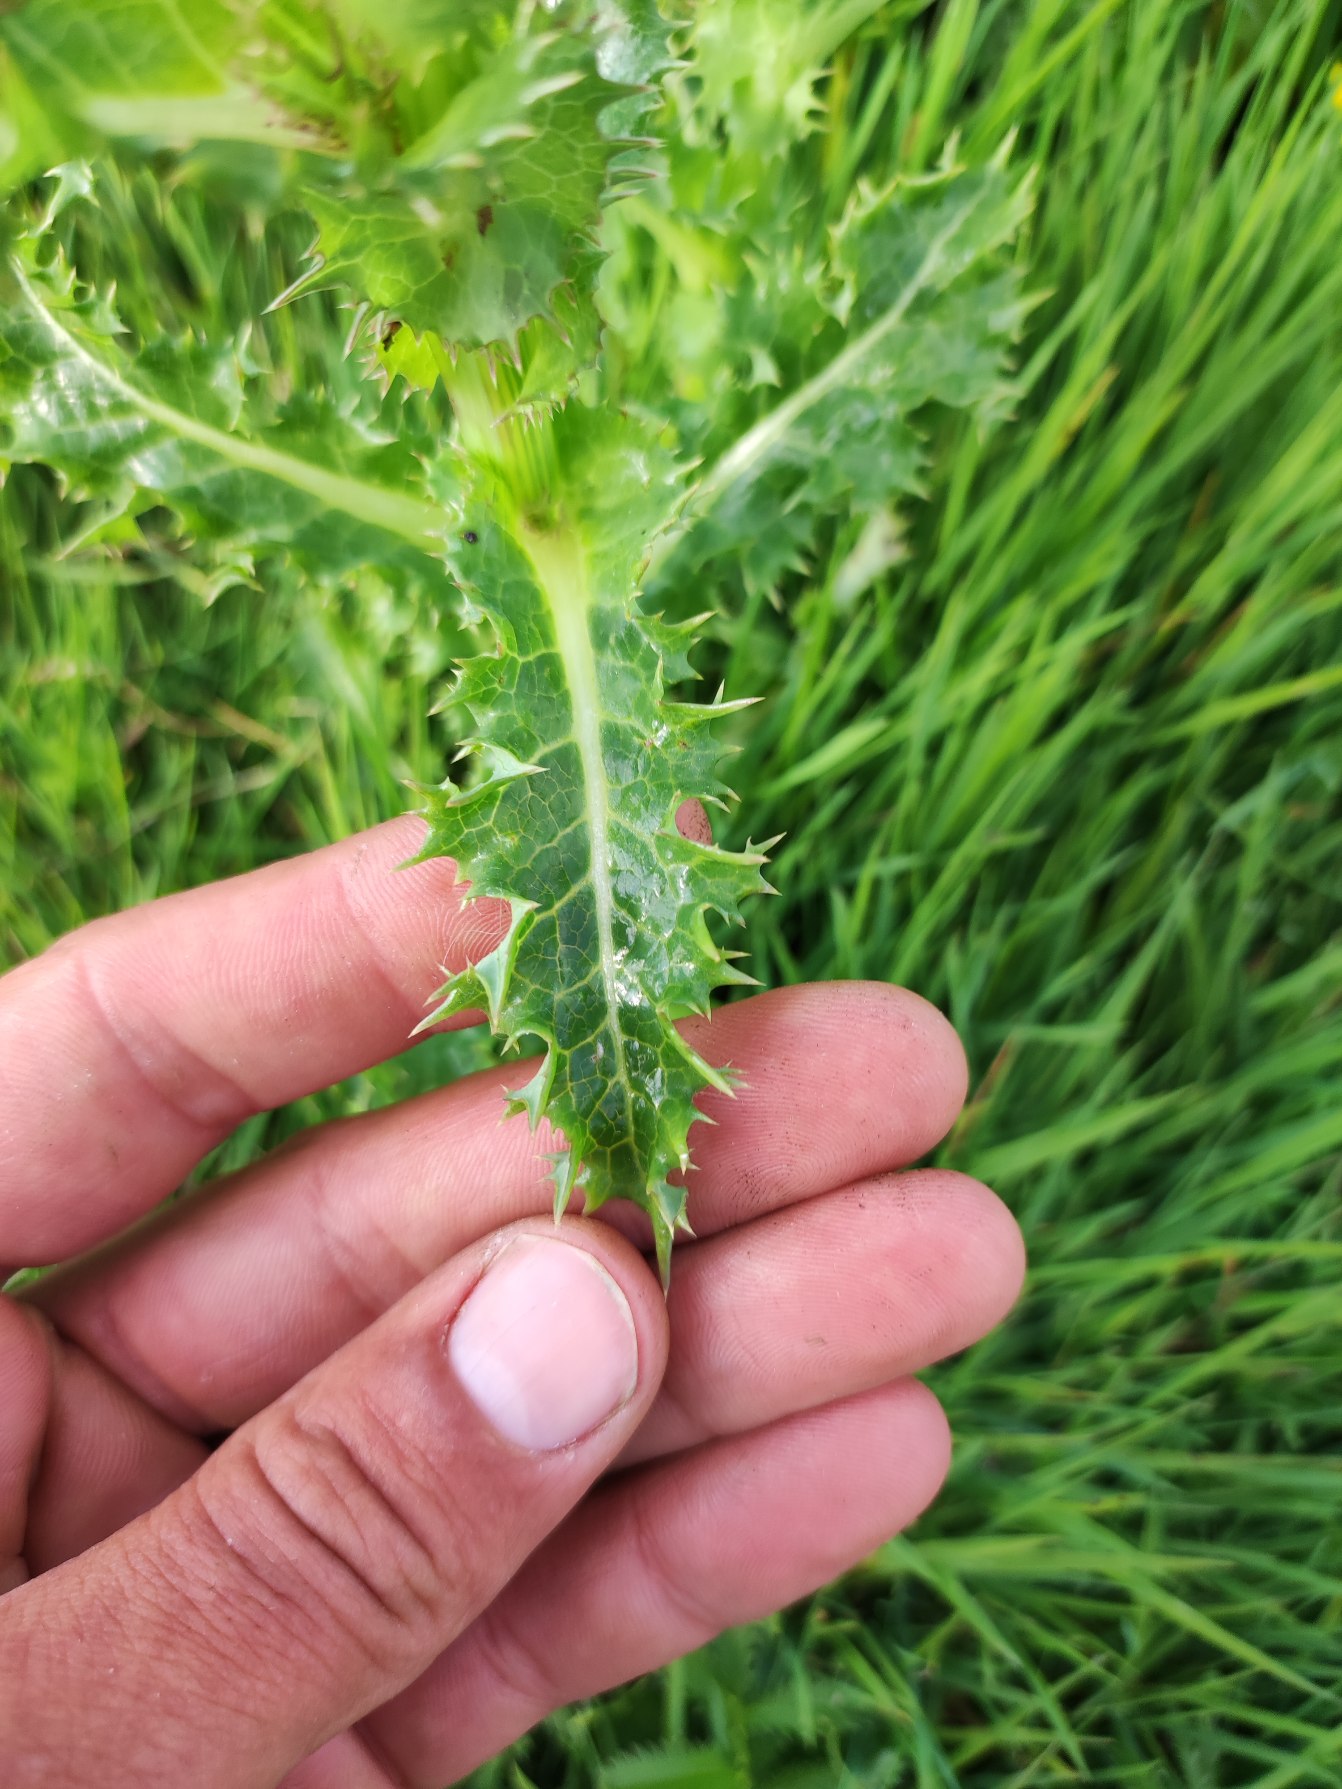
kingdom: Plantae
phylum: Tracheophyta
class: Magnoliopsida
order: Asterales
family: Asteraceae
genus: Sonchus
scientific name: Sonchus asper
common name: Ru svinemælk
